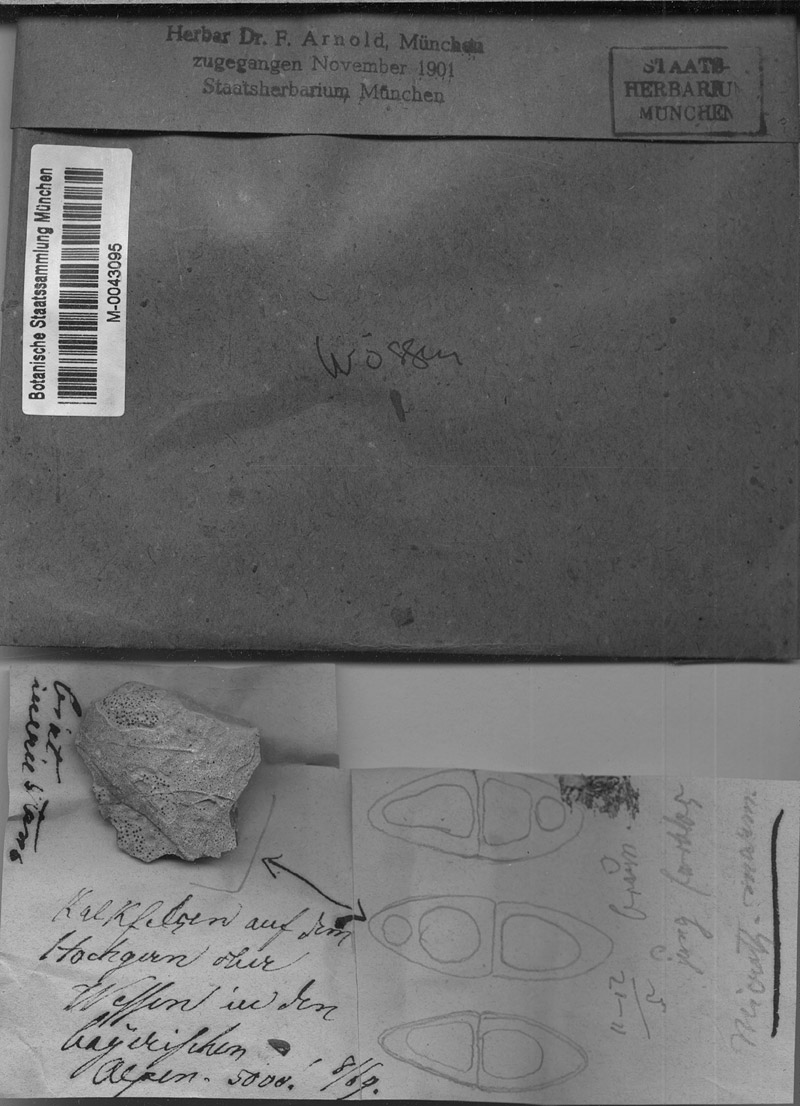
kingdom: Fungi
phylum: Ascomycota
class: Lecanoromycetes
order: Lecanorales
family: Psoraceae
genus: Protoblastenia
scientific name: Protoblastenia incrustans
